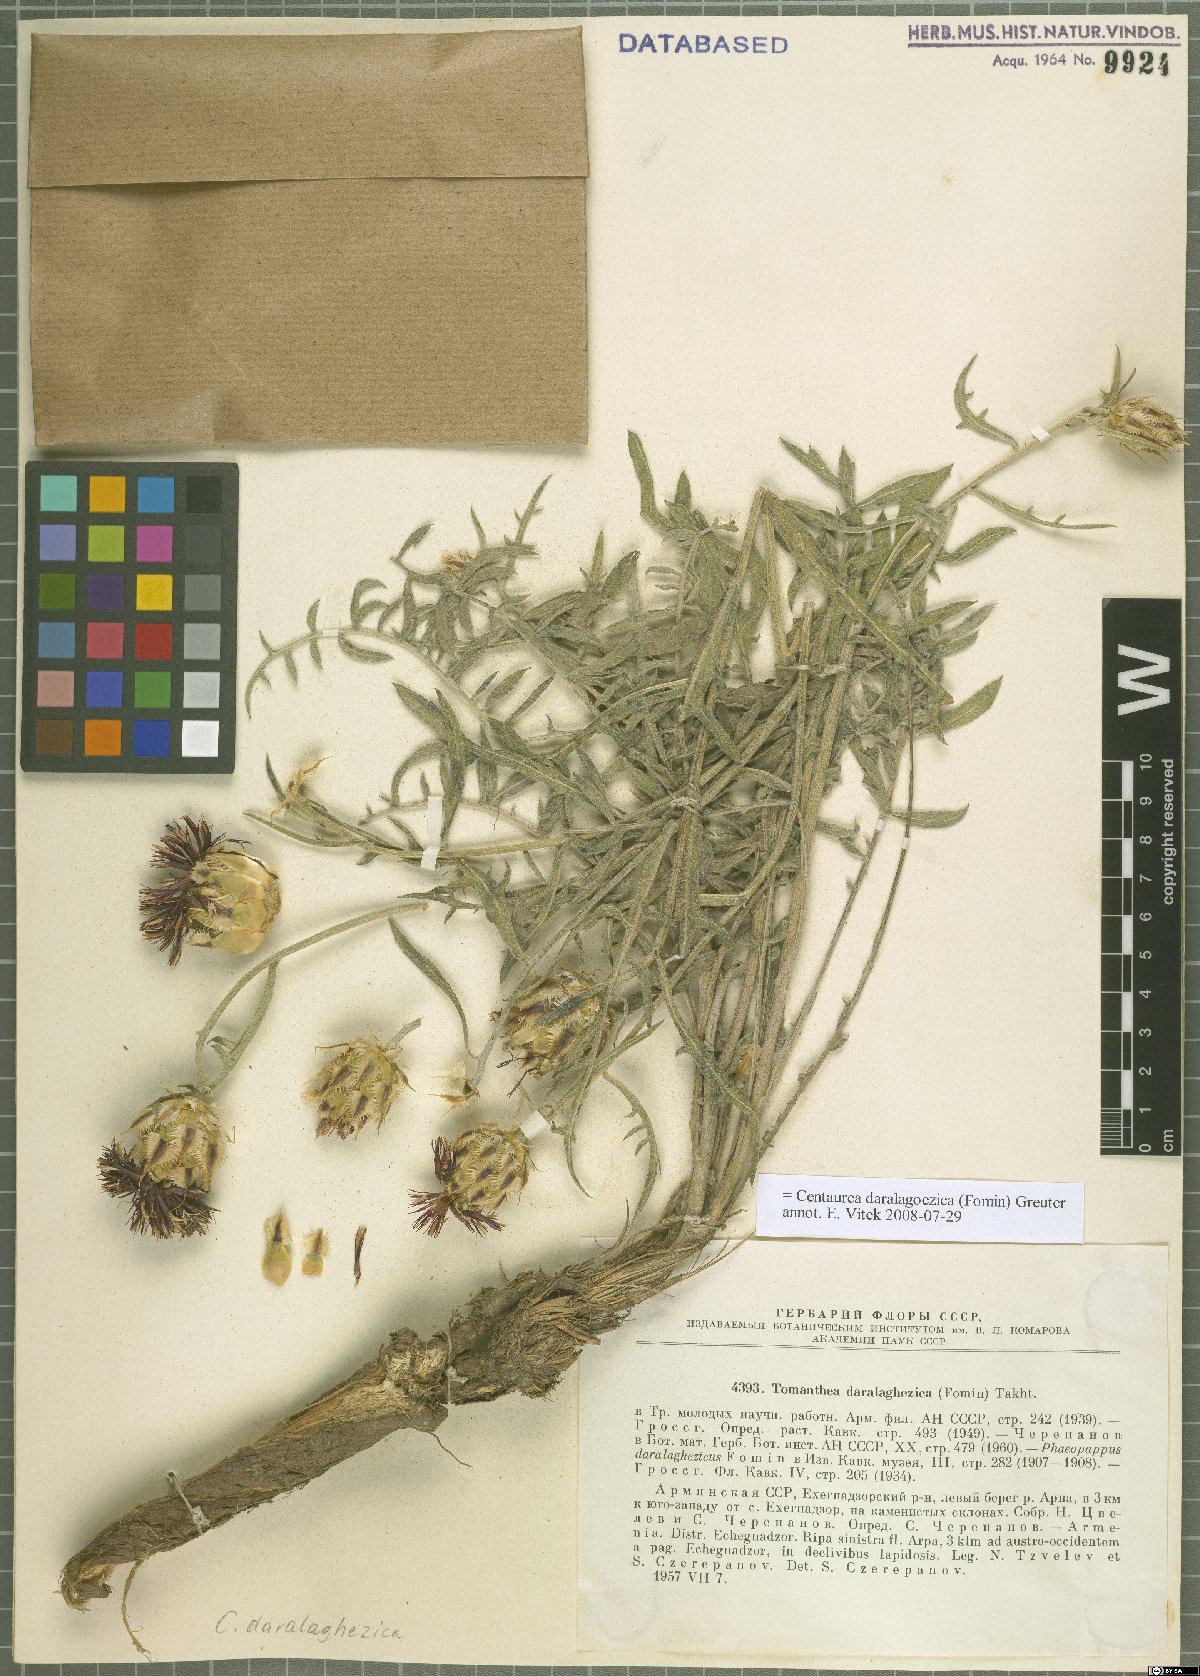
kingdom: Plantae
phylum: Tracheophyta
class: Magnoliopsida
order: Asterales
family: Asteraceae
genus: Centaurea
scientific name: Centaurea daralagoezica
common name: Daralagezian tomanthea
